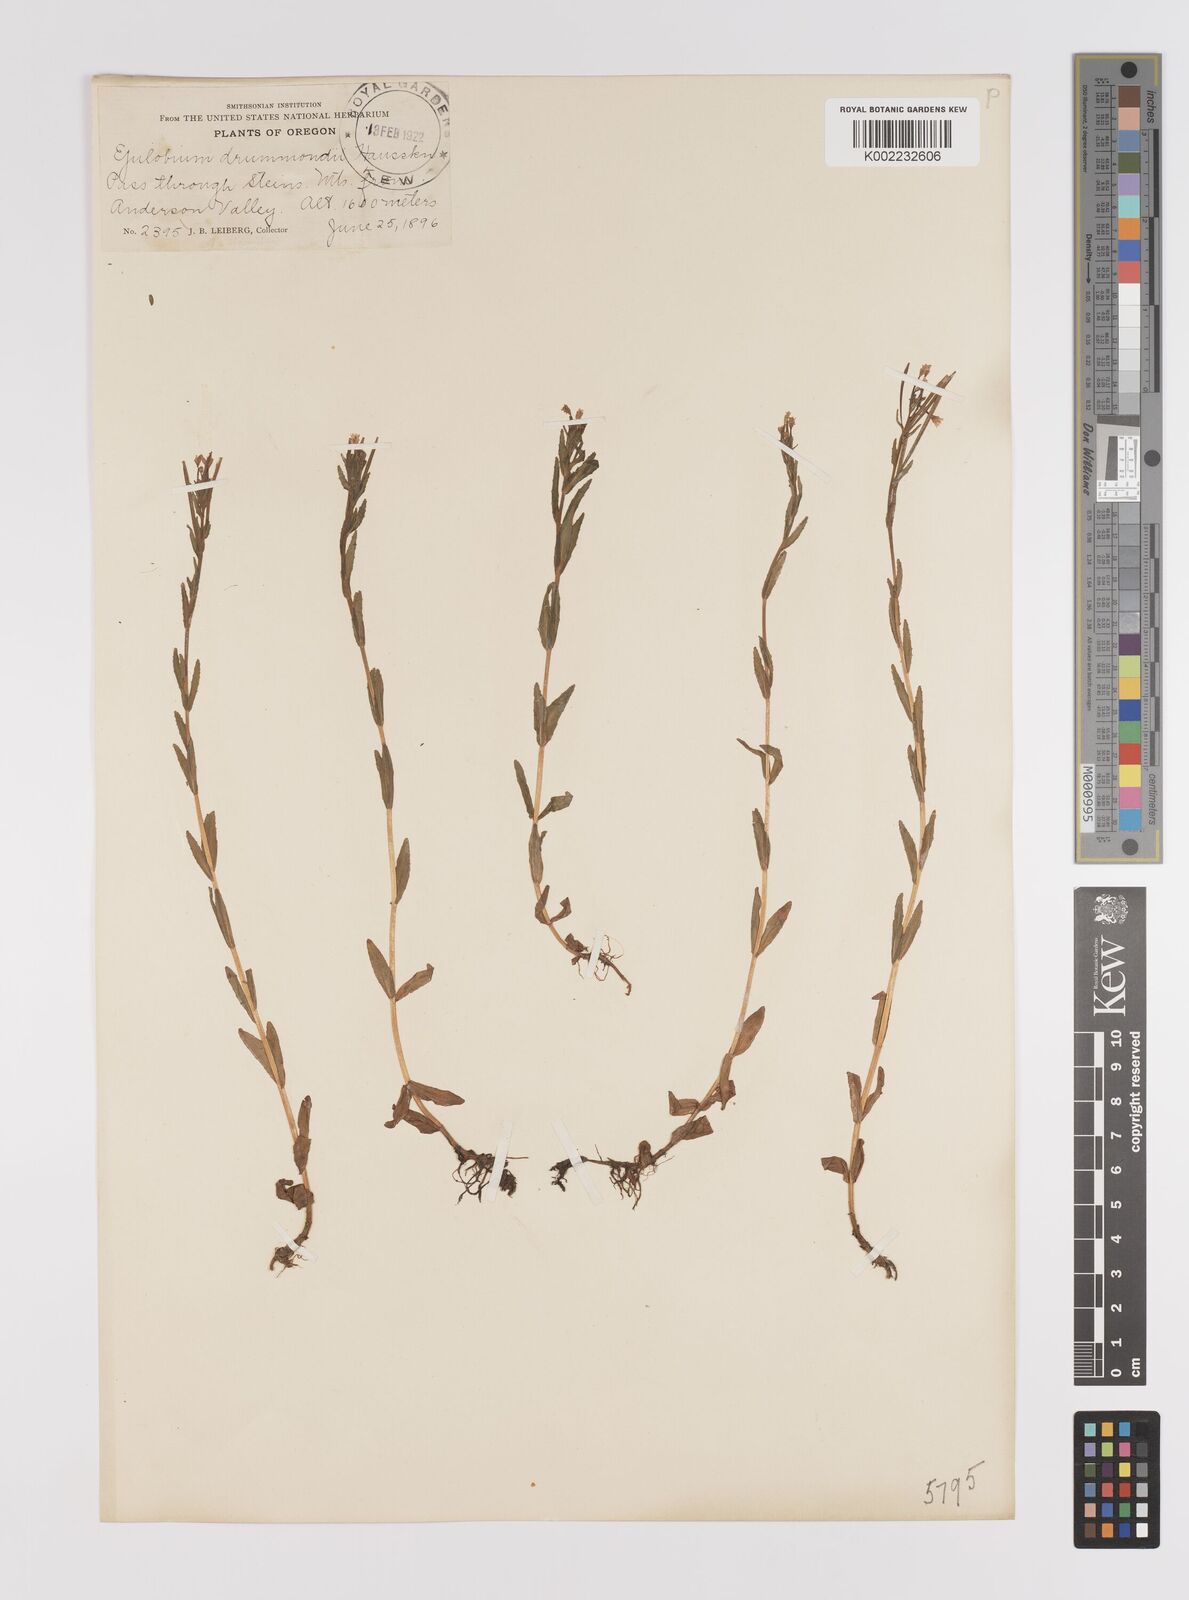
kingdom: Plantae
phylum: Tracheophyta
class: Magnoliopsida
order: Myrtales
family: Onagraceae
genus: Epilobium
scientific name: Epilobium hallianum
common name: Hall's willowherb
